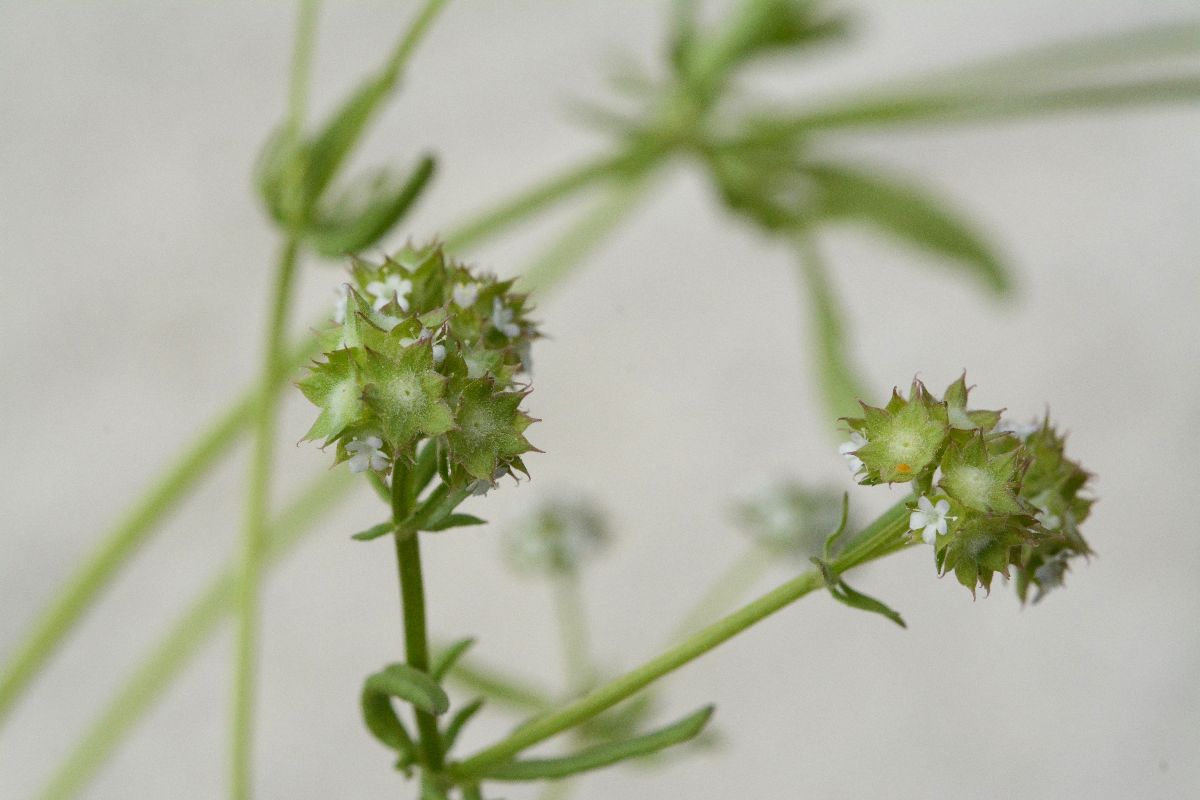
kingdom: Plantae
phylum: Tracheophyta
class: Magnoliopsida
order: Dipsacales
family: Caprifoliaceae
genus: Valerianella
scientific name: Valerianella discoidea
